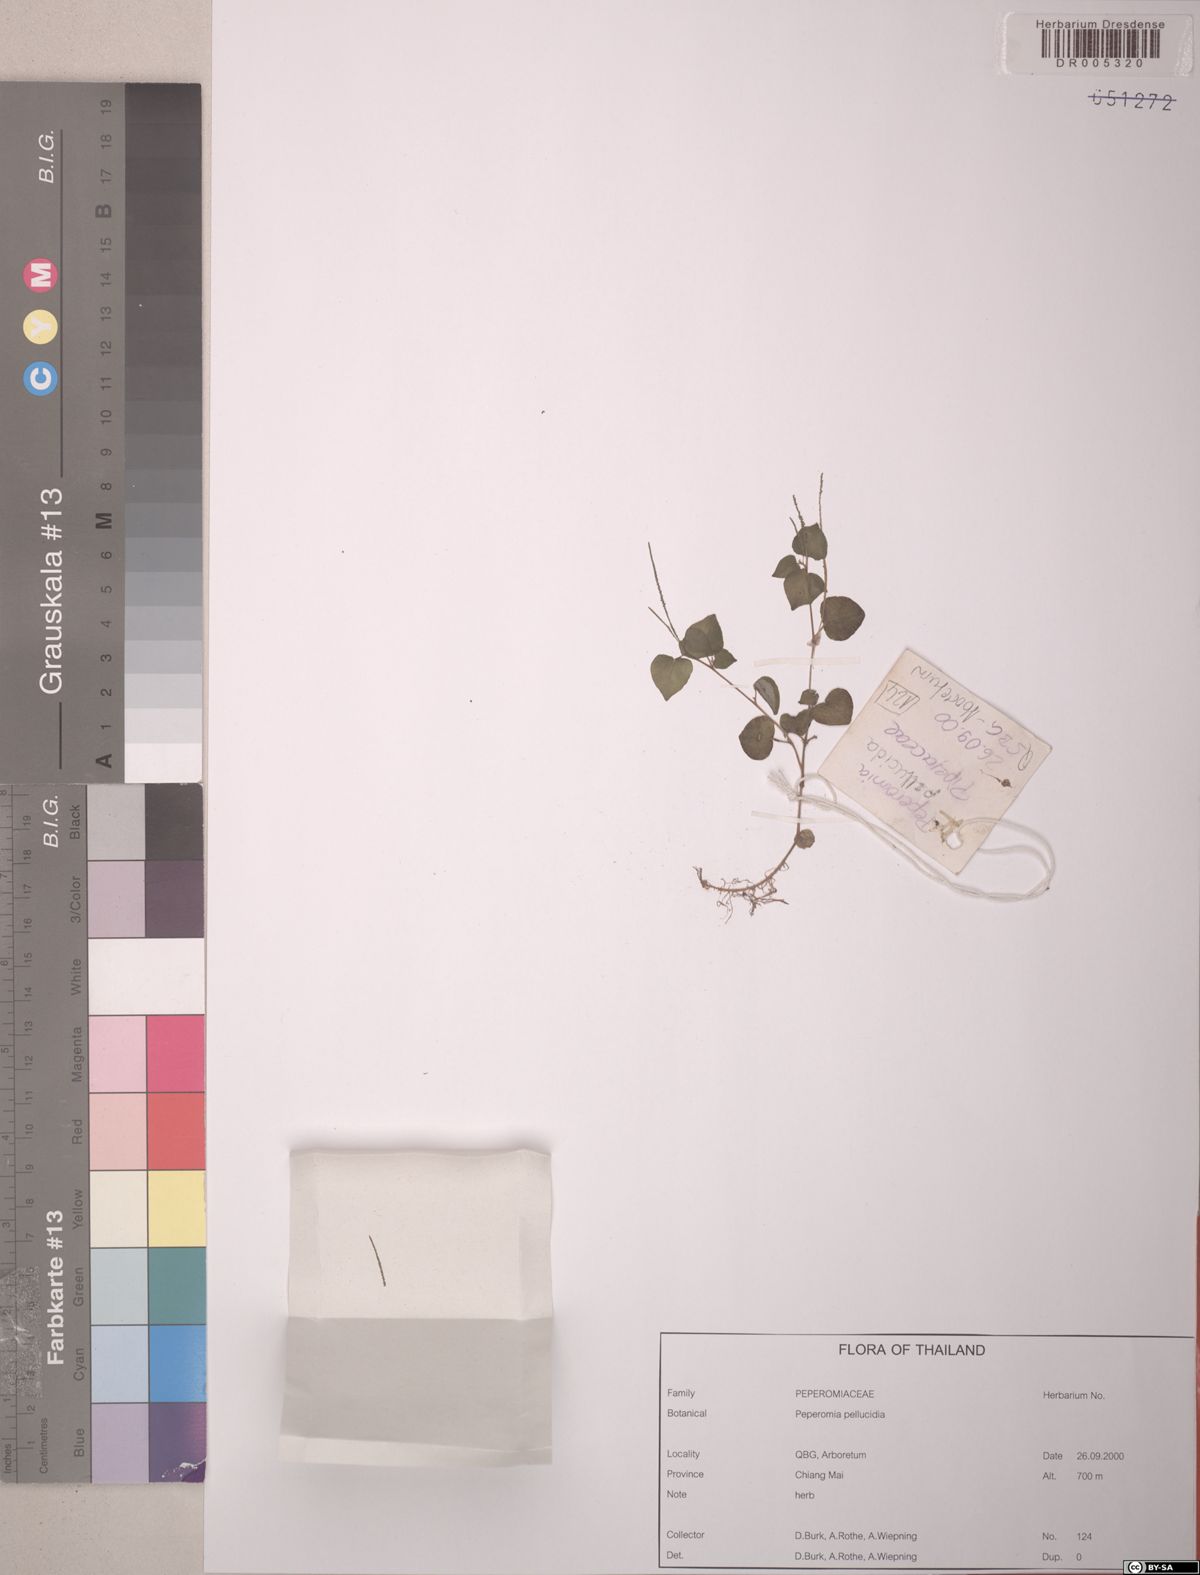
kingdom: Plantae
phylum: Tracheophyta
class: Magnoliopsida
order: Piperales
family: Piperaceae
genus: Peperomia
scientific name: Peperomia pellucida
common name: Man to man
